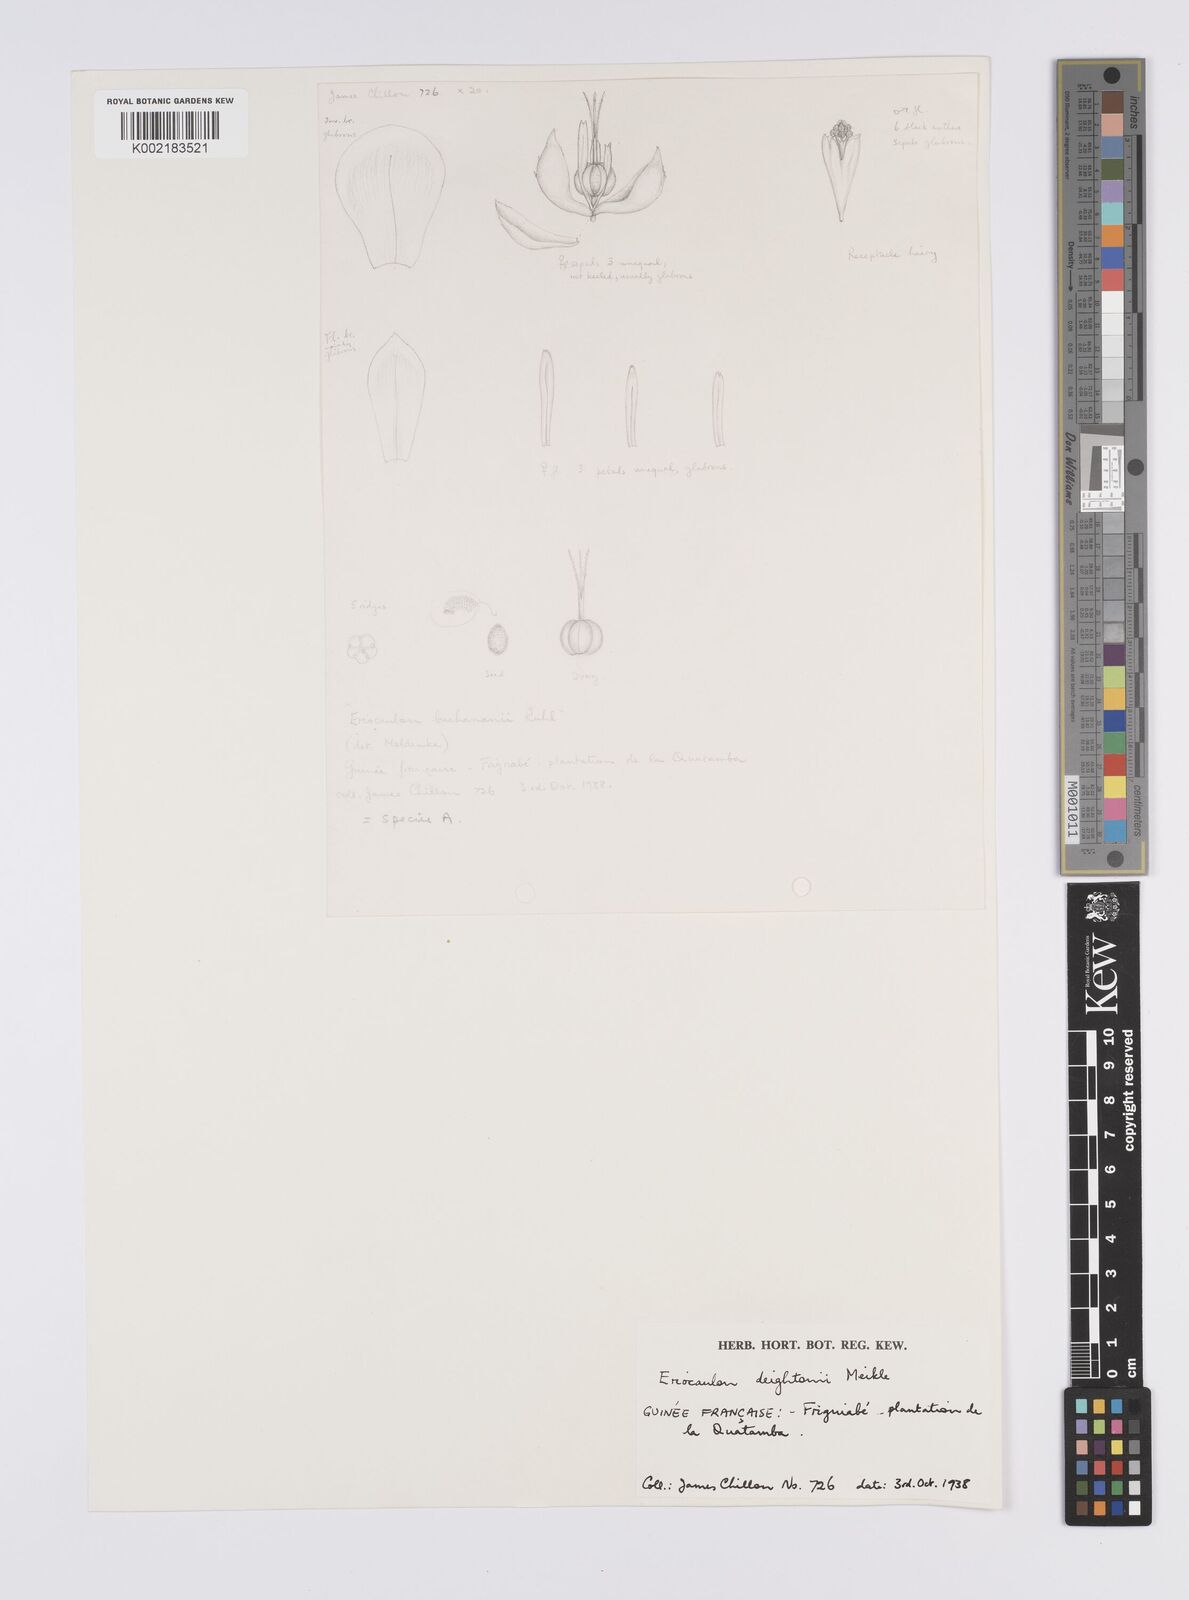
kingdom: Plantae
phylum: Tracheophyta
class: Liliopsida
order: Poales
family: Eriocaulaceae
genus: Eriocaulon
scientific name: Eriocaulon deightonii
